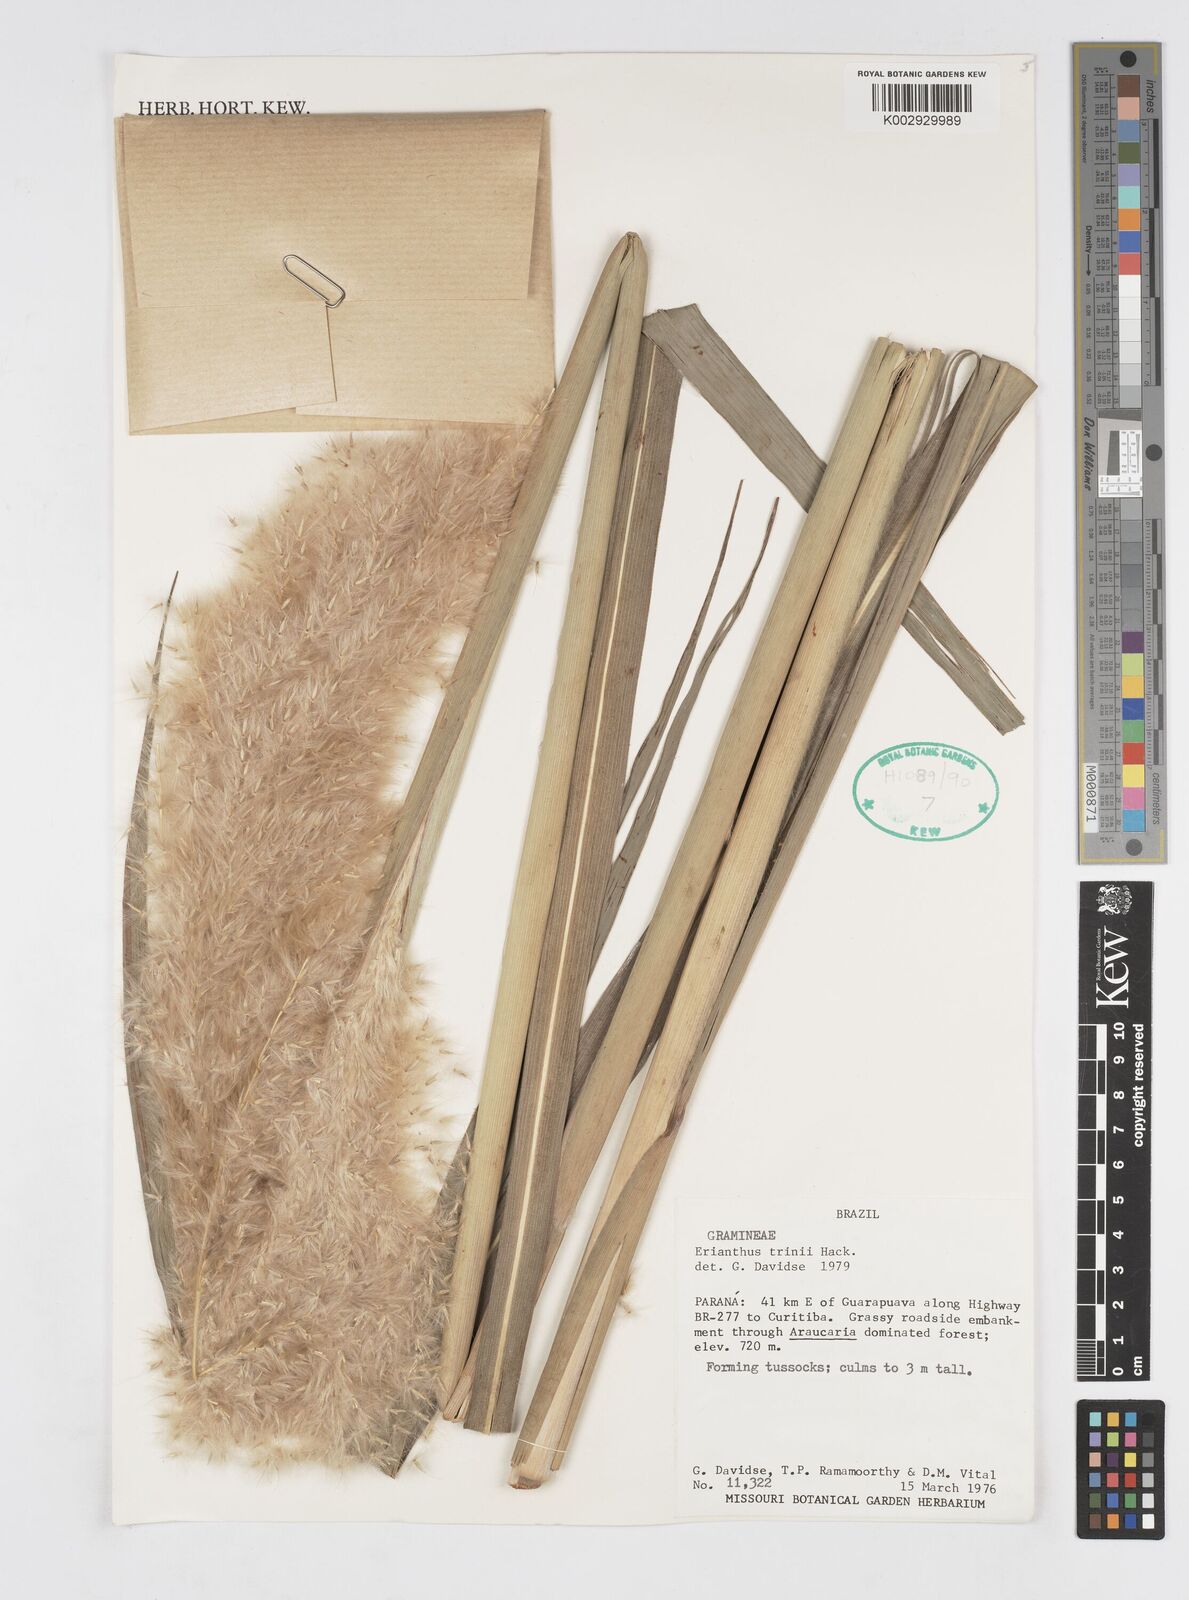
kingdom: Plantae
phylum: Tracheophyta
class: Liliopsida
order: Poales
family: Poaceae
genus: Erianthus
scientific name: Erianthus trinii
